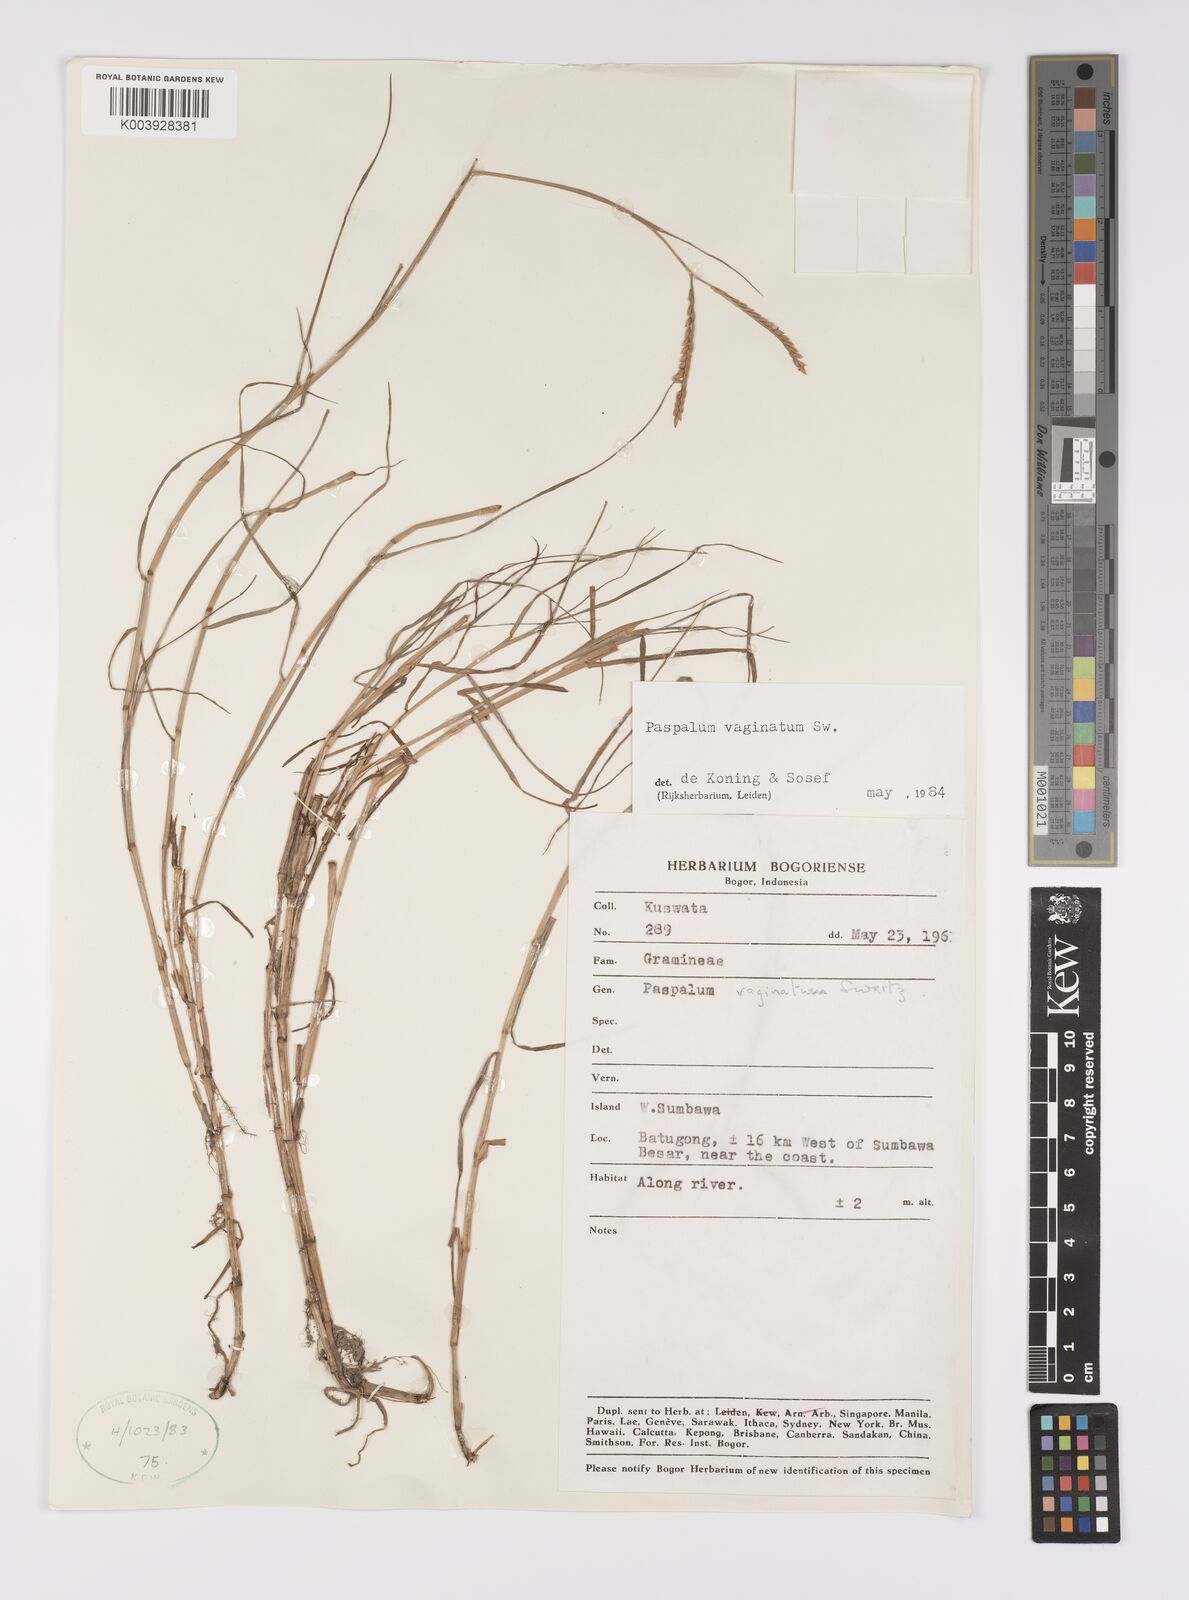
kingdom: Plantae
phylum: Tracheophyta
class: Liliopsida
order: Poales
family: Poaceae
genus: Paspalum
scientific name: Paspalum vaginatum
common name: Seashore paspalum
